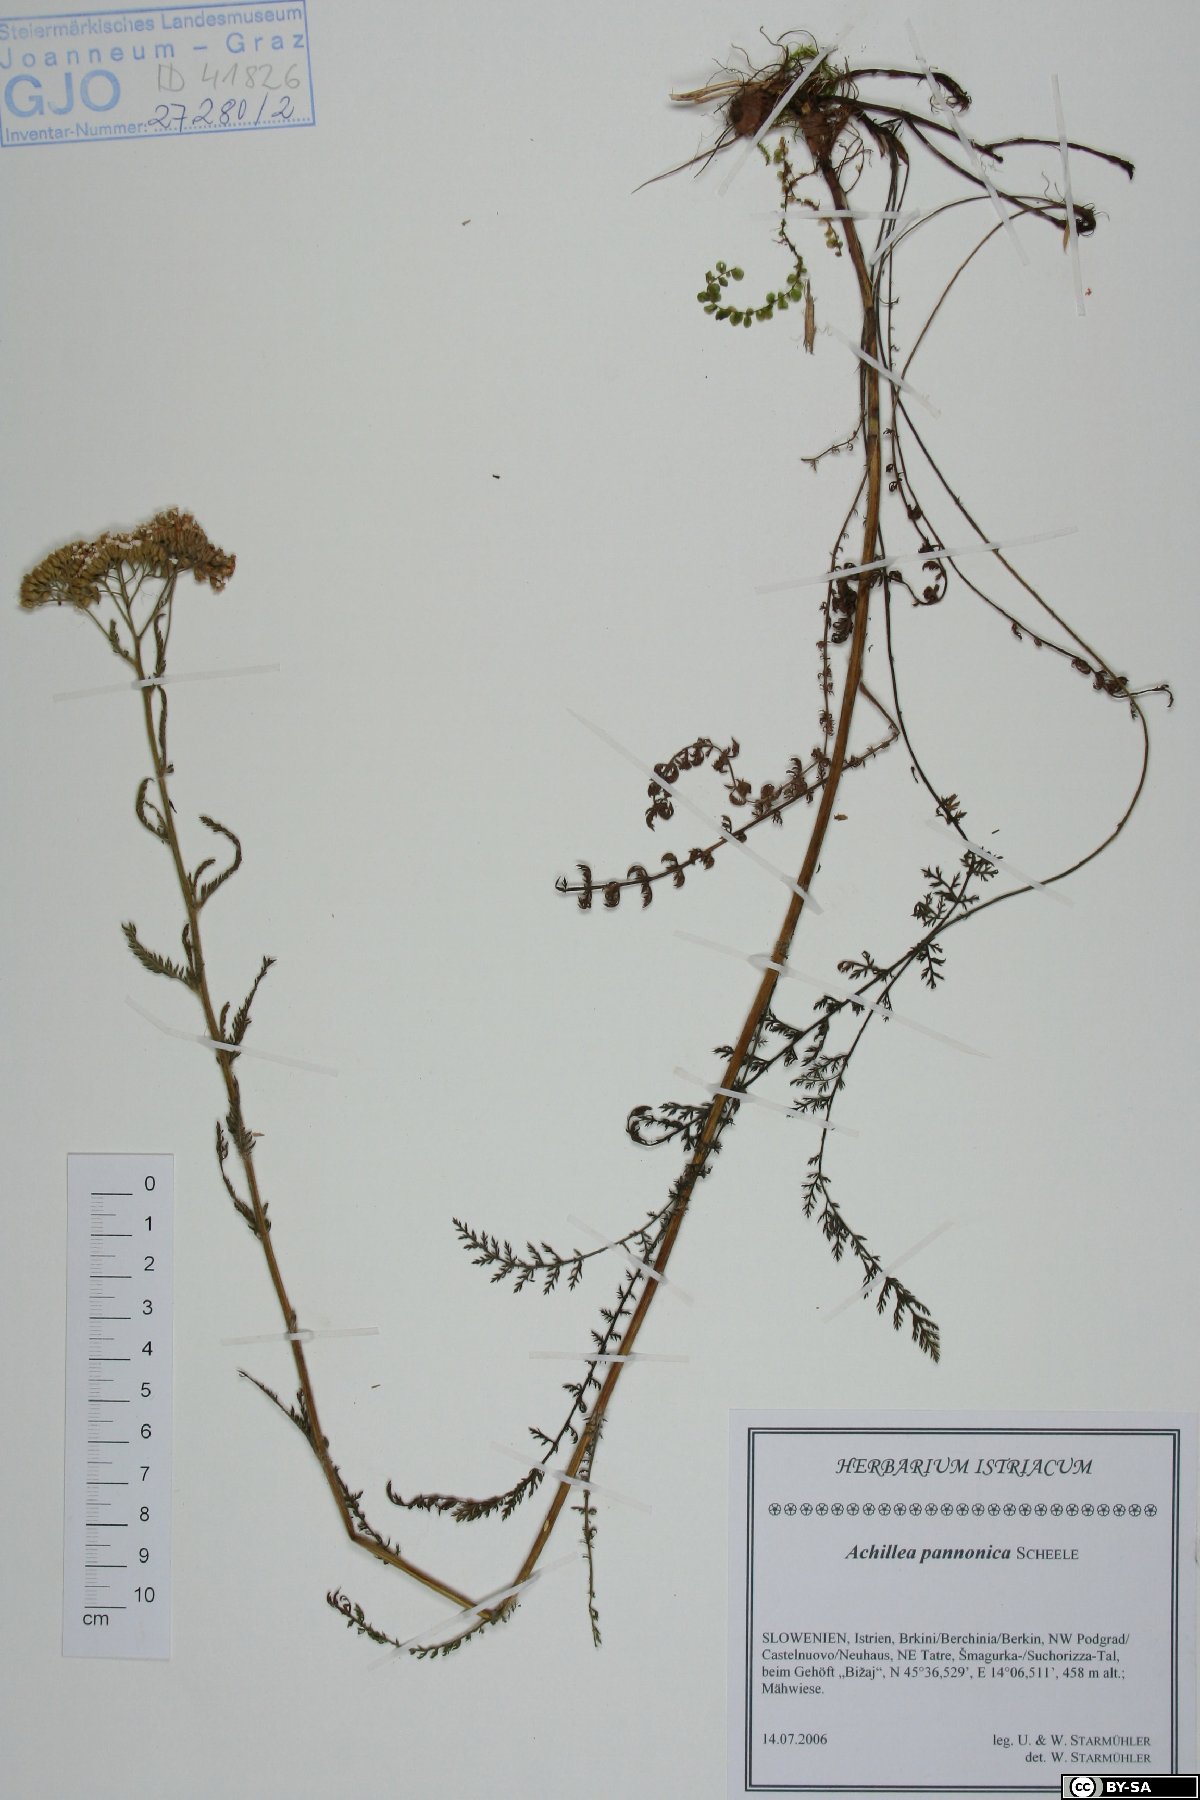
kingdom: Plantae
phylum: Tracheophyta
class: Magnoliopsida
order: Asterales
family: Asteraceae
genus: Achillea
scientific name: Achillea pannonica
